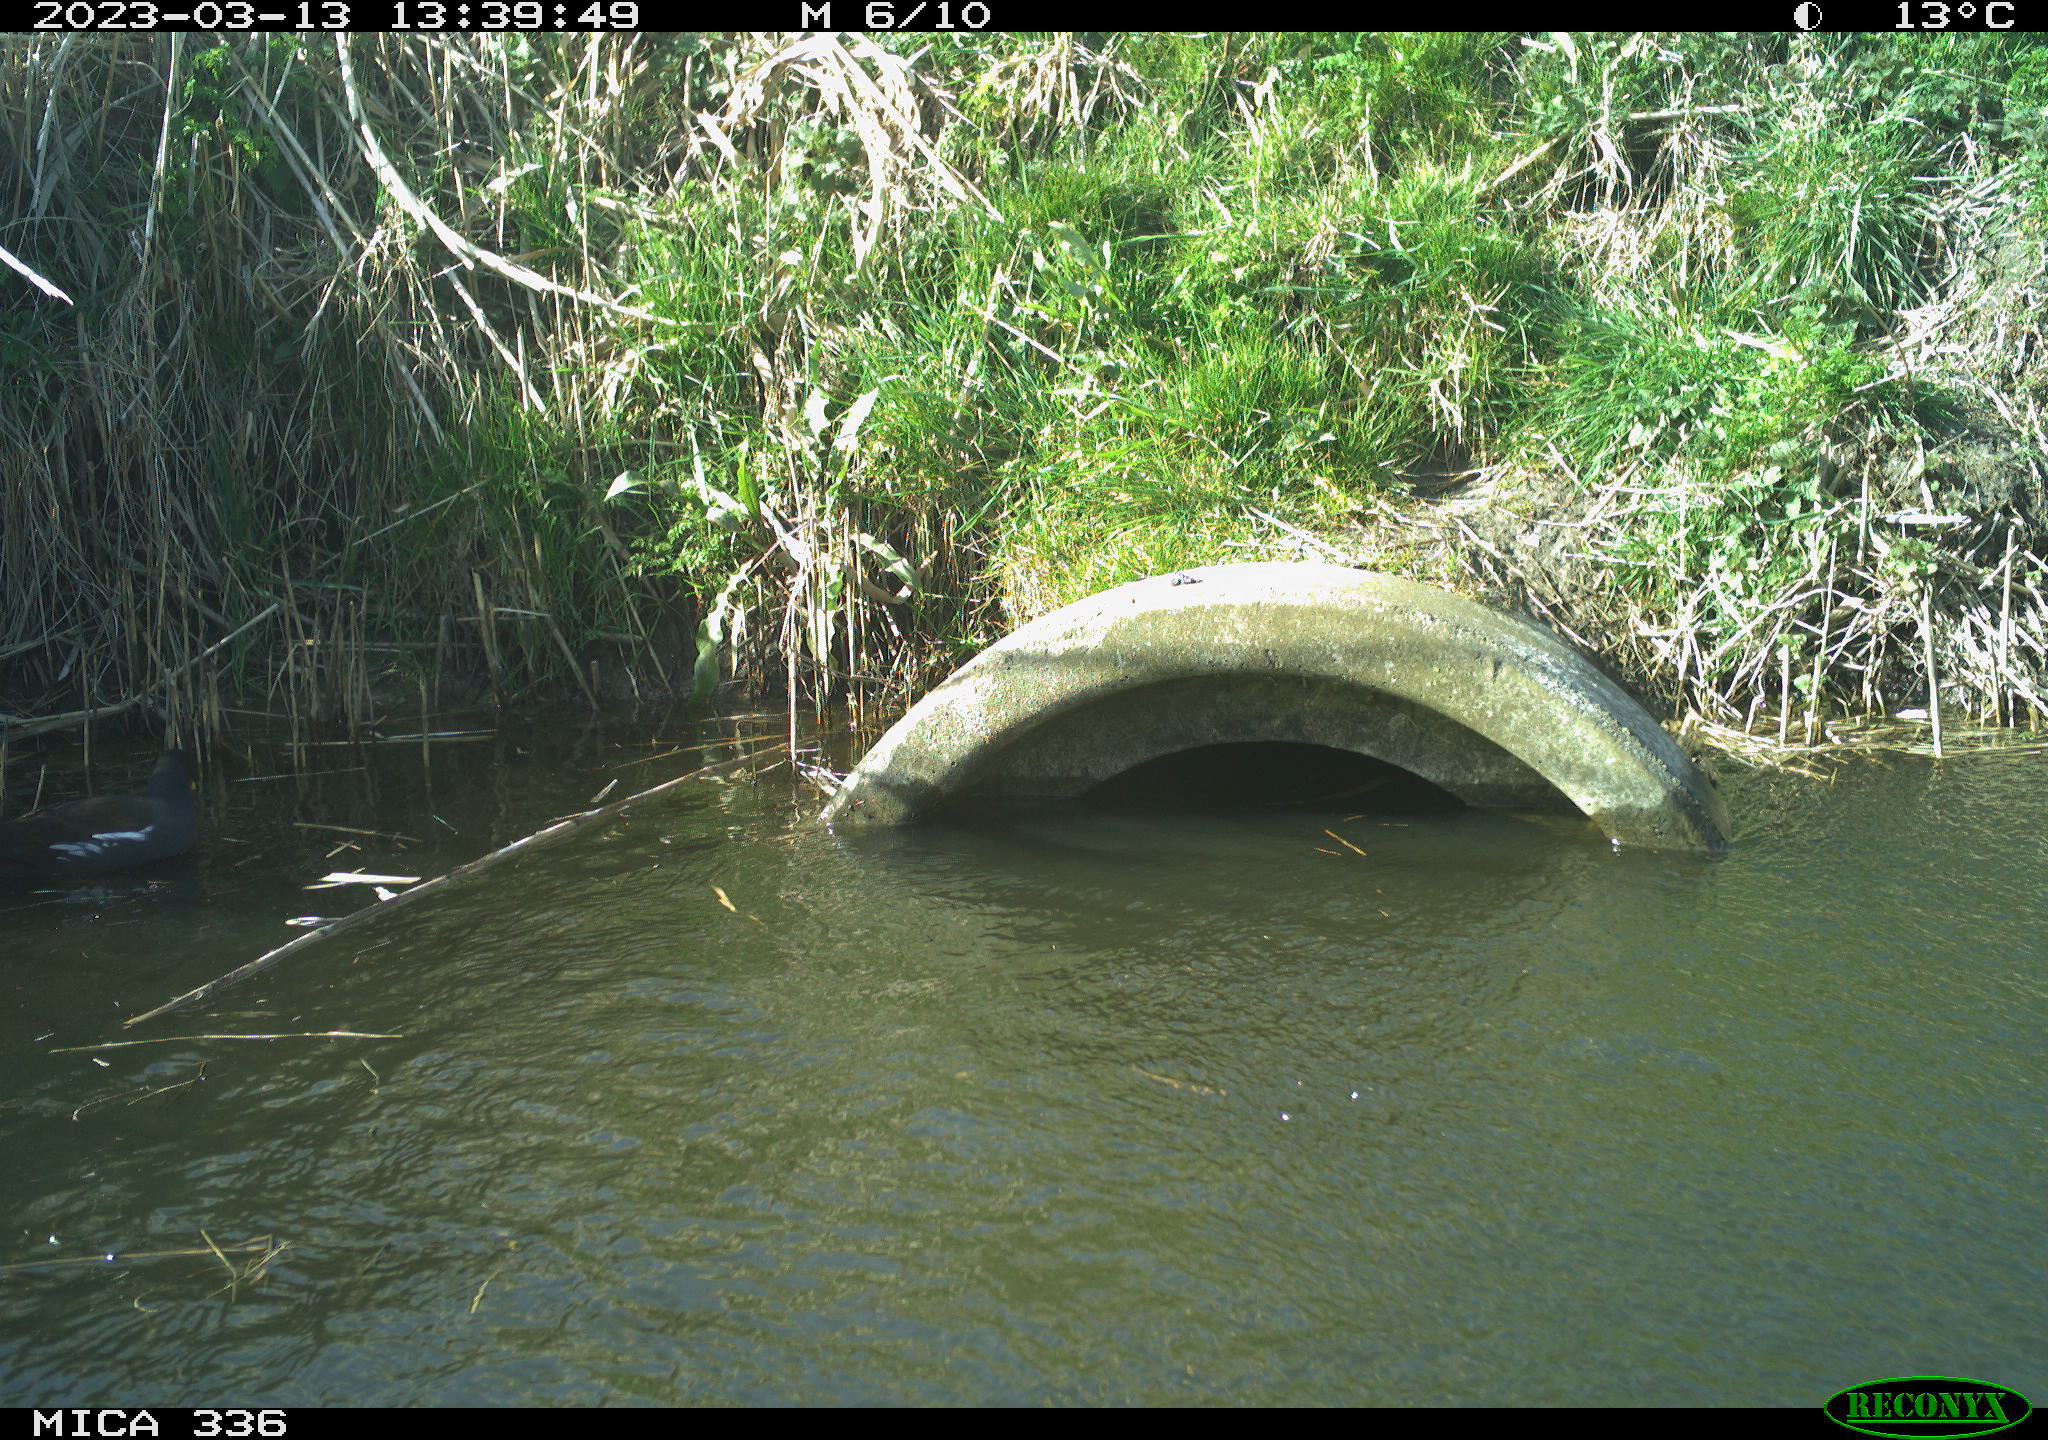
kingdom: Animalia
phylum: Chordata
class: Aves
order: Gruiformes
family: Rallidae
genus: Gallinula
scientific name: Gallinula chloropus
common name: Common moorhen
